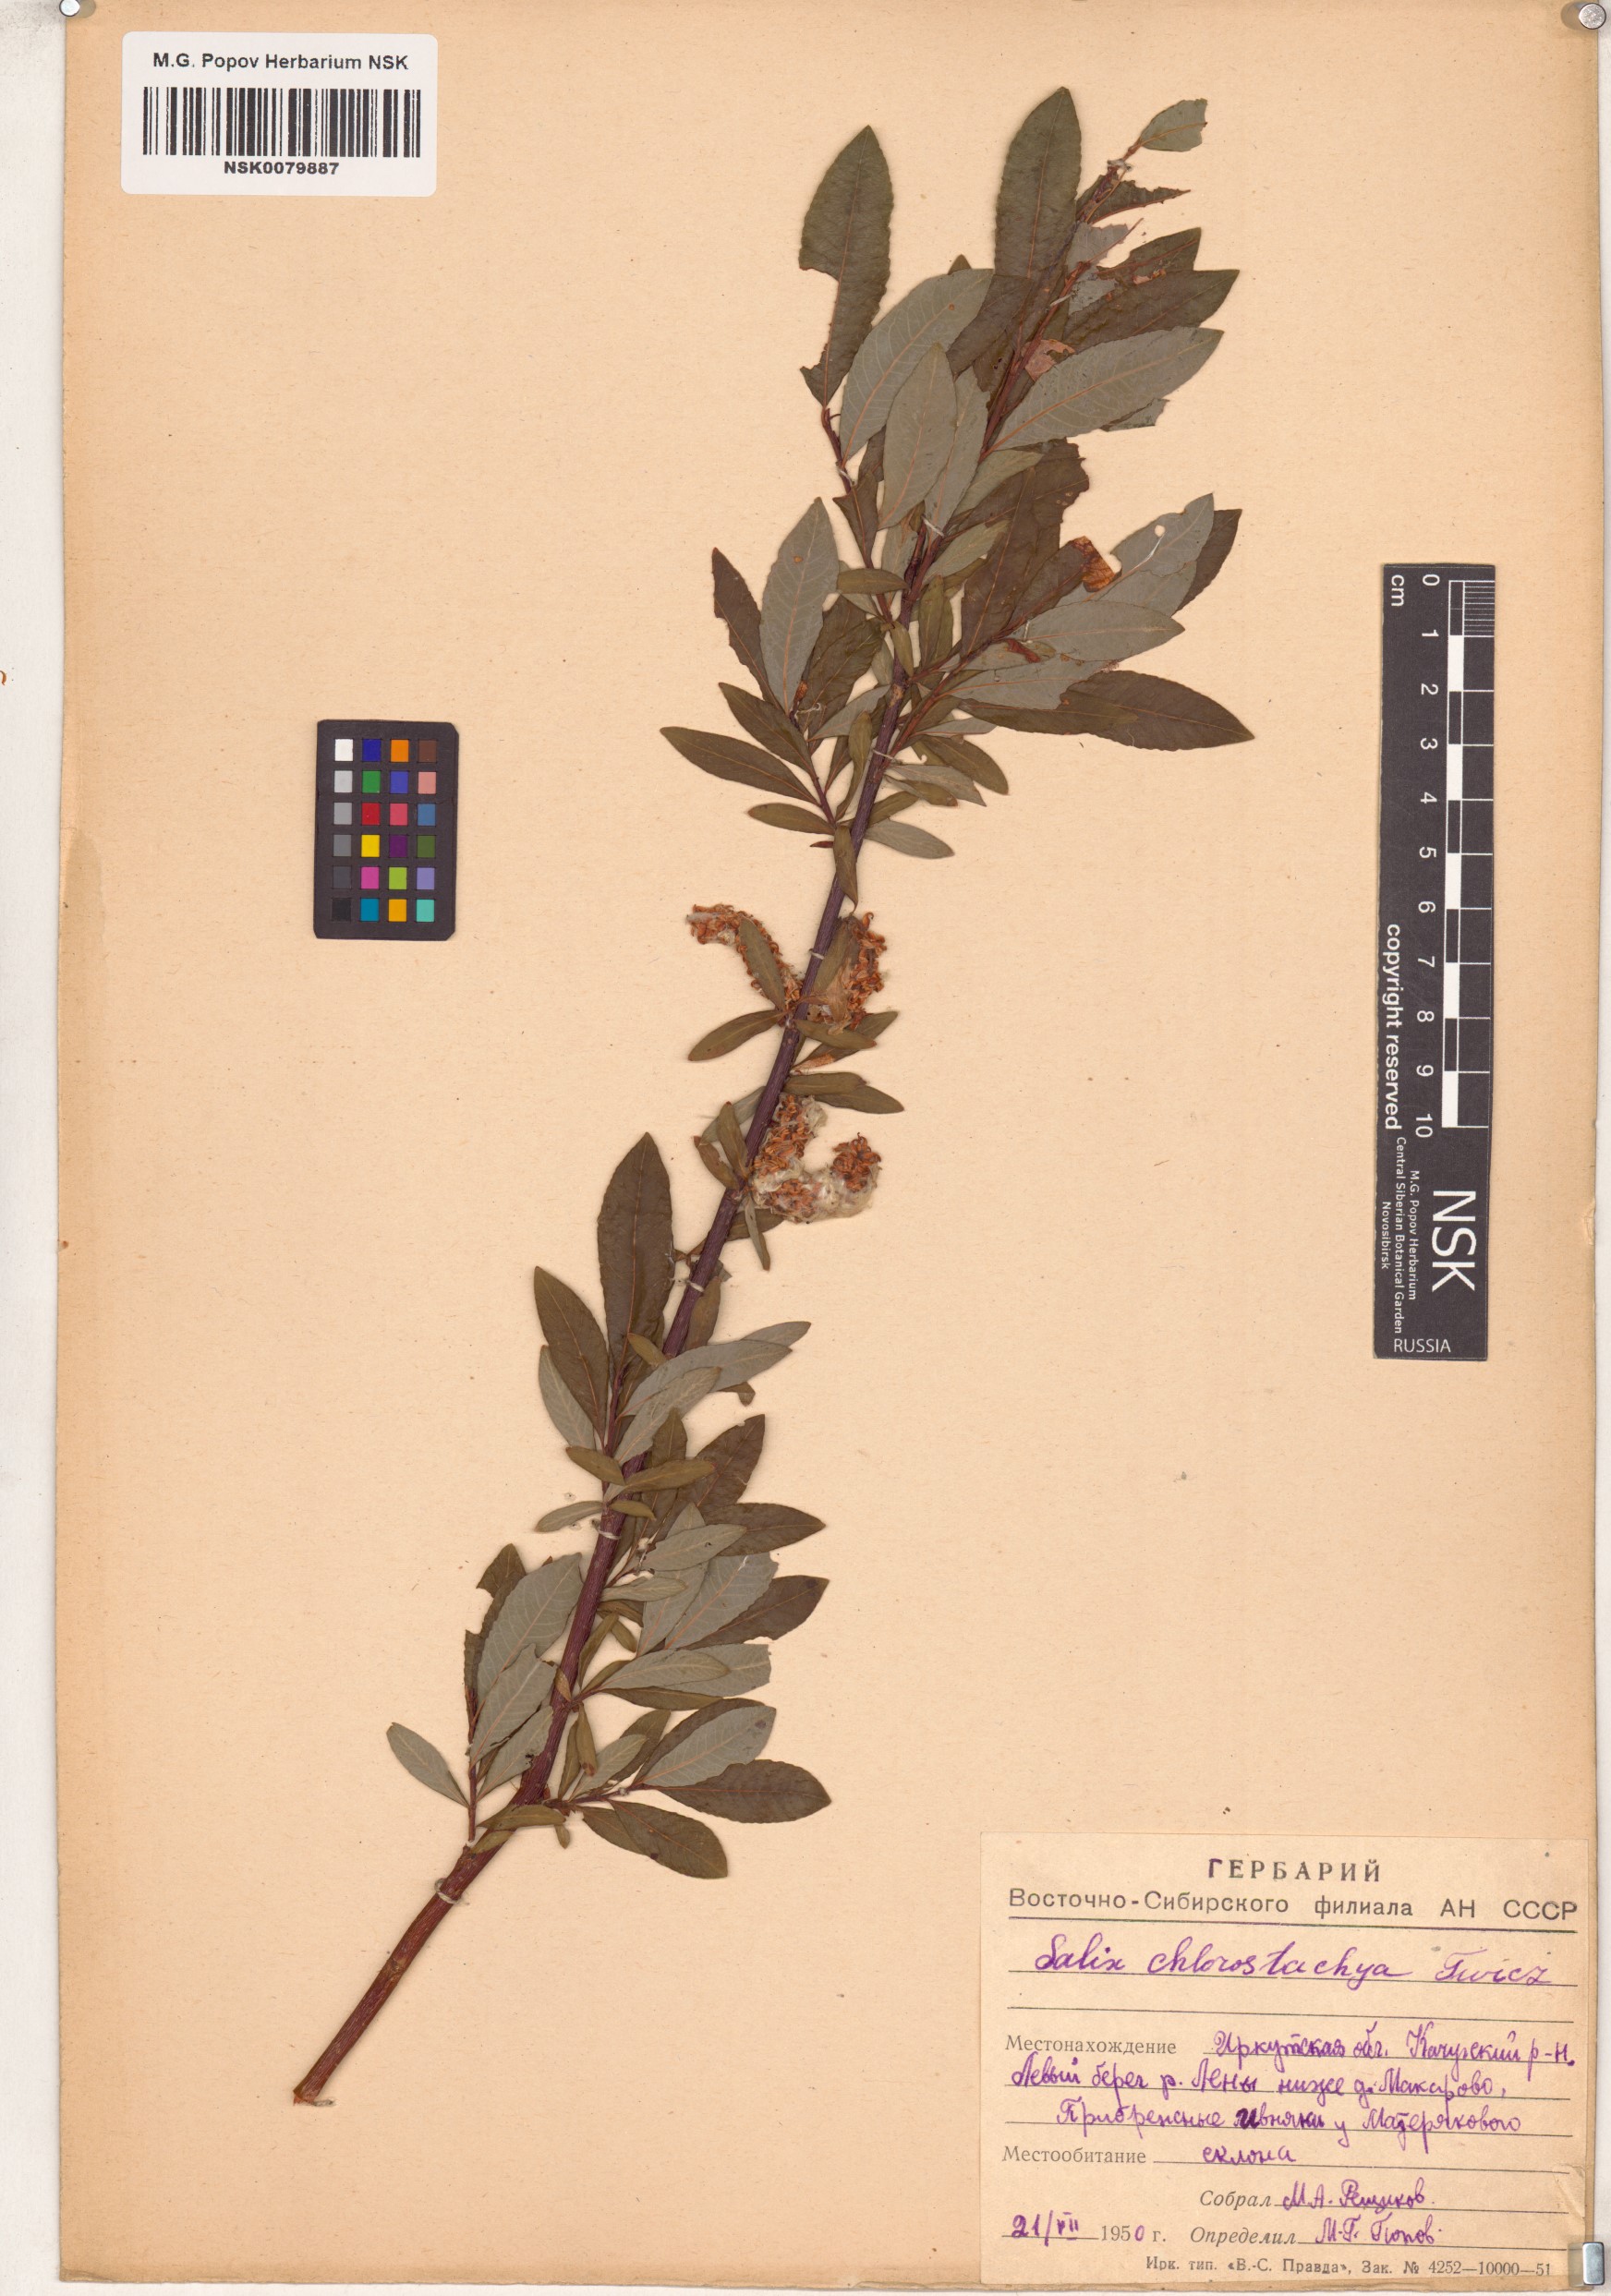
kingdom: Plantae
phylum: Tracheophyta
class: Magnoliopsida
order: Malpighiales
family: Salicaceae
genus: Salix
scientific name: Salix rhamnifolia
